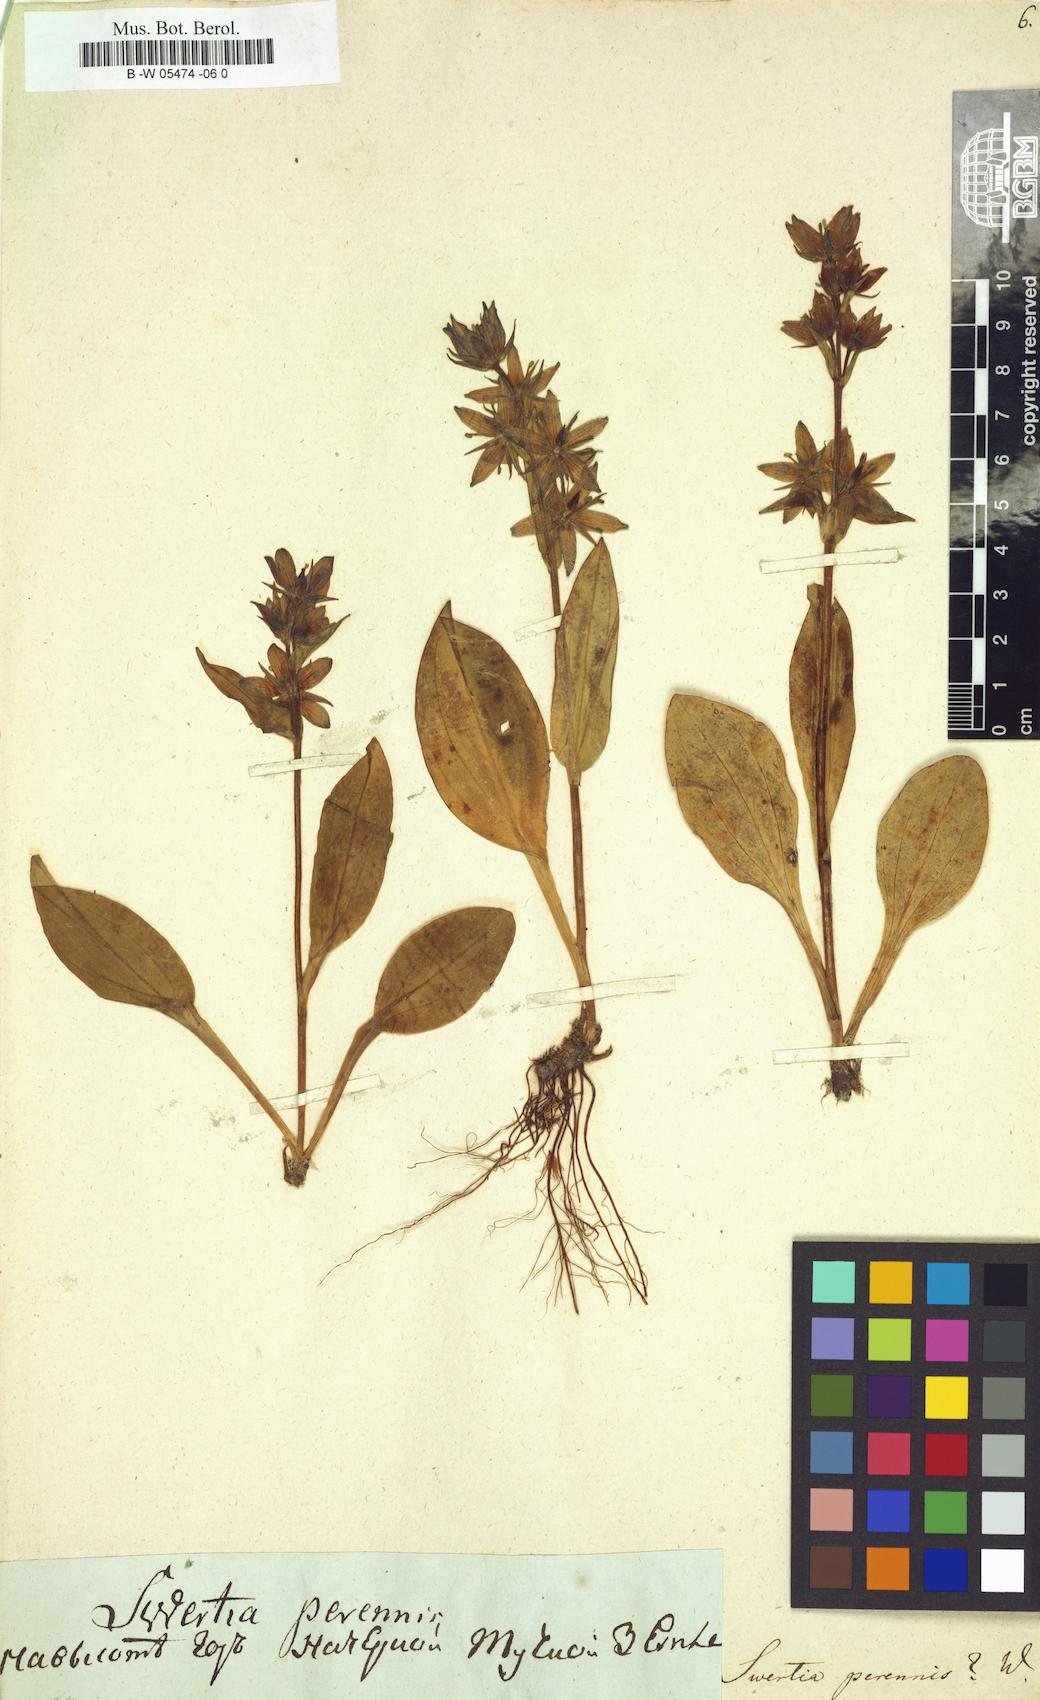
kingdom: Plantae
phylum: Tracheophyta
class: Magnoliopsida
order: Gentianales
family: Gentianaceae
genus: Swertia
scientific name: Swertia perennis
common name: Alpine bog swertia
